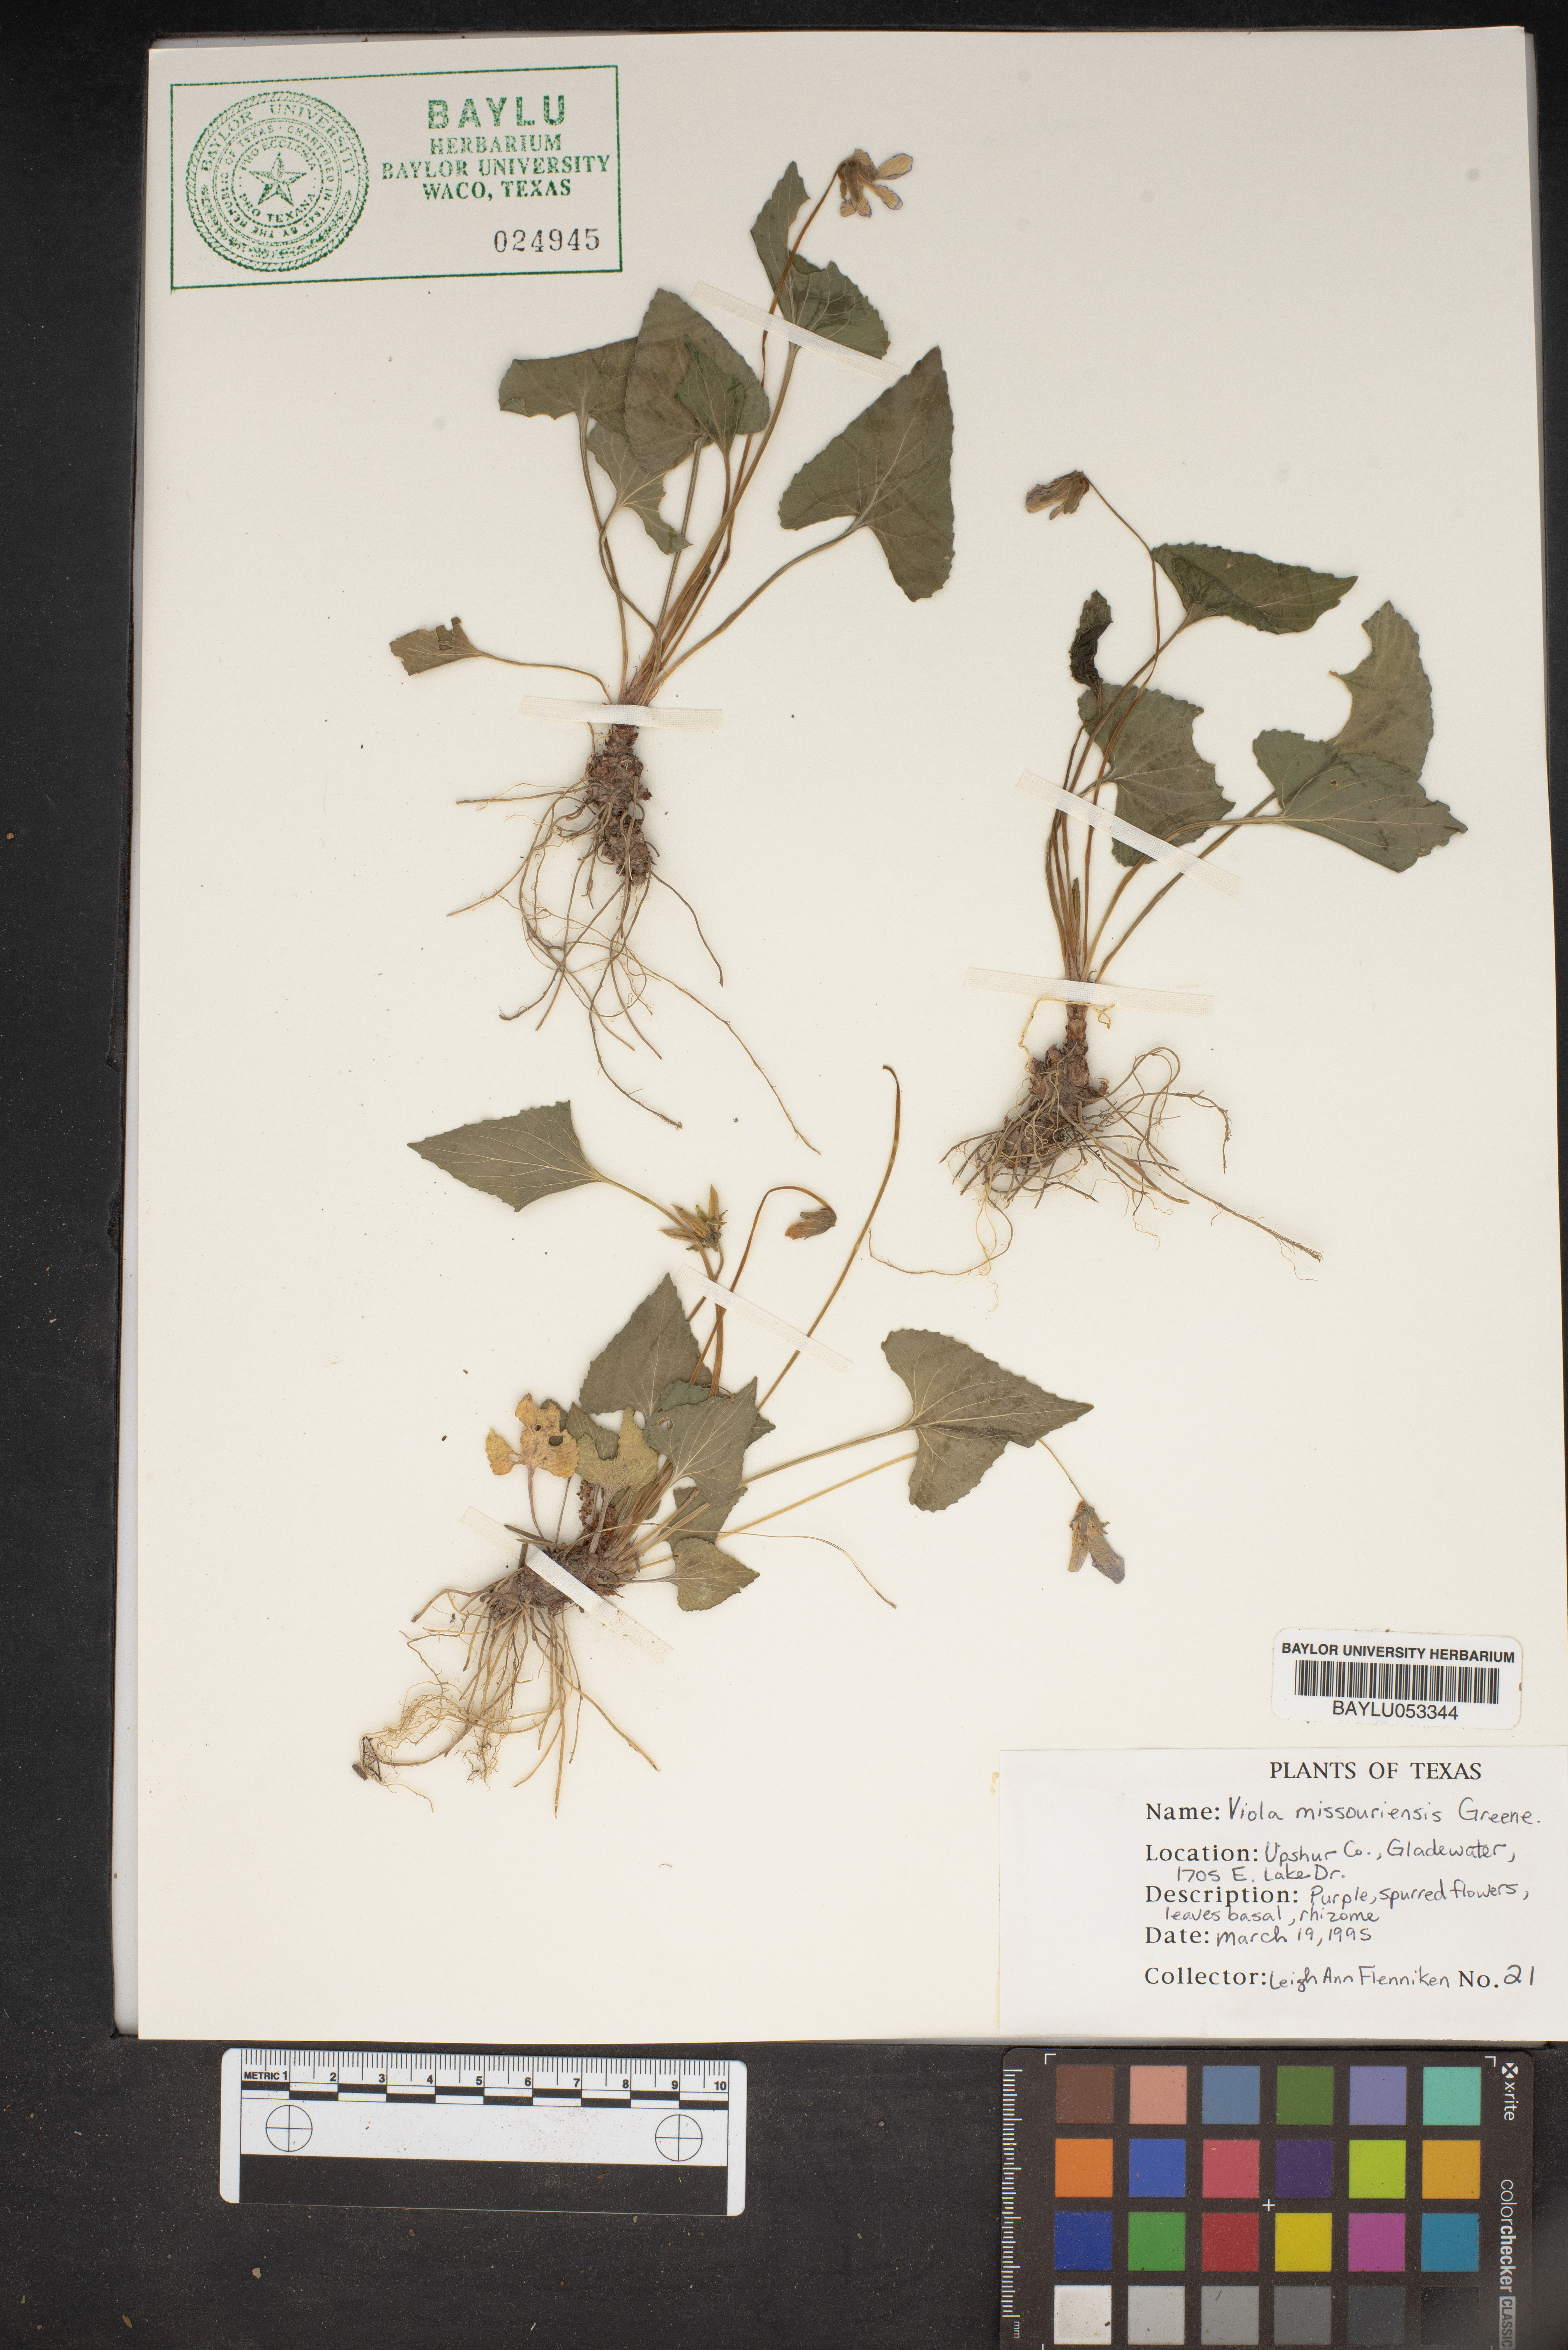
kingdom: Plantae
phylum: Tracheophyta
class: Magnoliopsida
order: Malpighiales
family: Violaceae
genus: Viola
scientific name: Viola missouriensis
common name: Missouri violet
